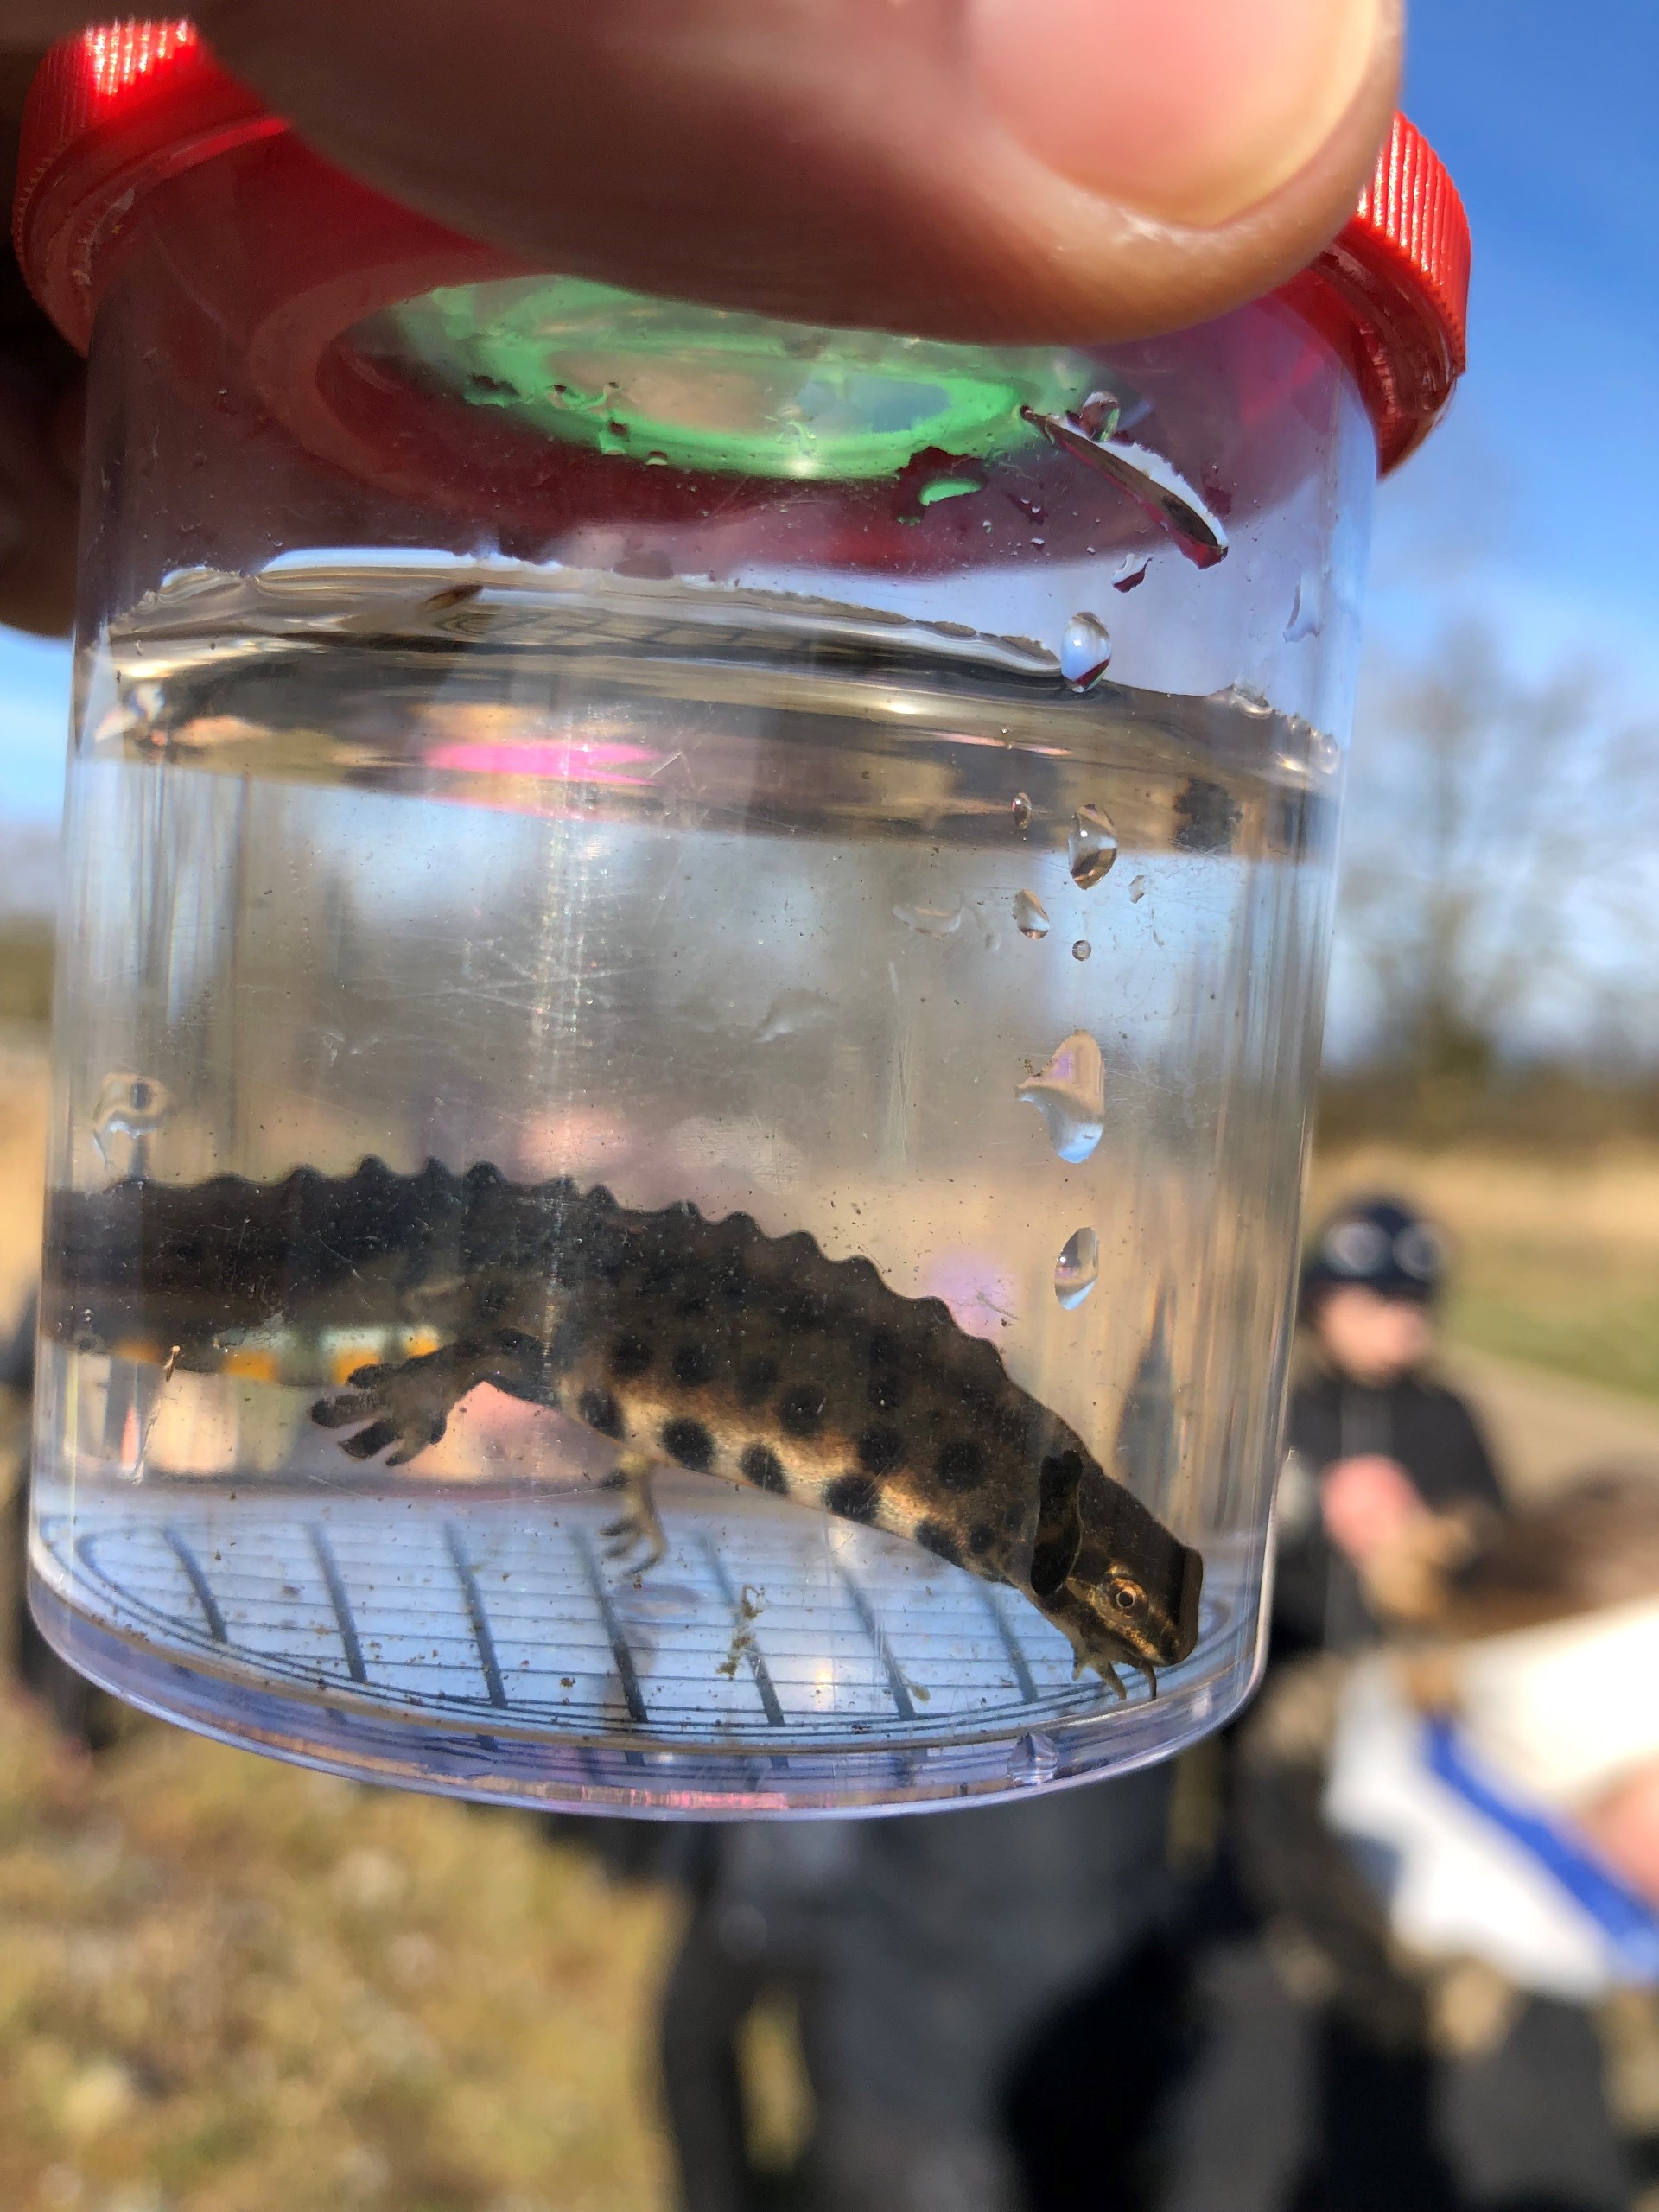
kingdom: Animalia
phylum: Chordata
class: Amphibia
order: Caudata
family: Salamandridae
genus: Lissotriton
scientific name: Lissotriton vulgaris
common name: Lille vandsalamander
